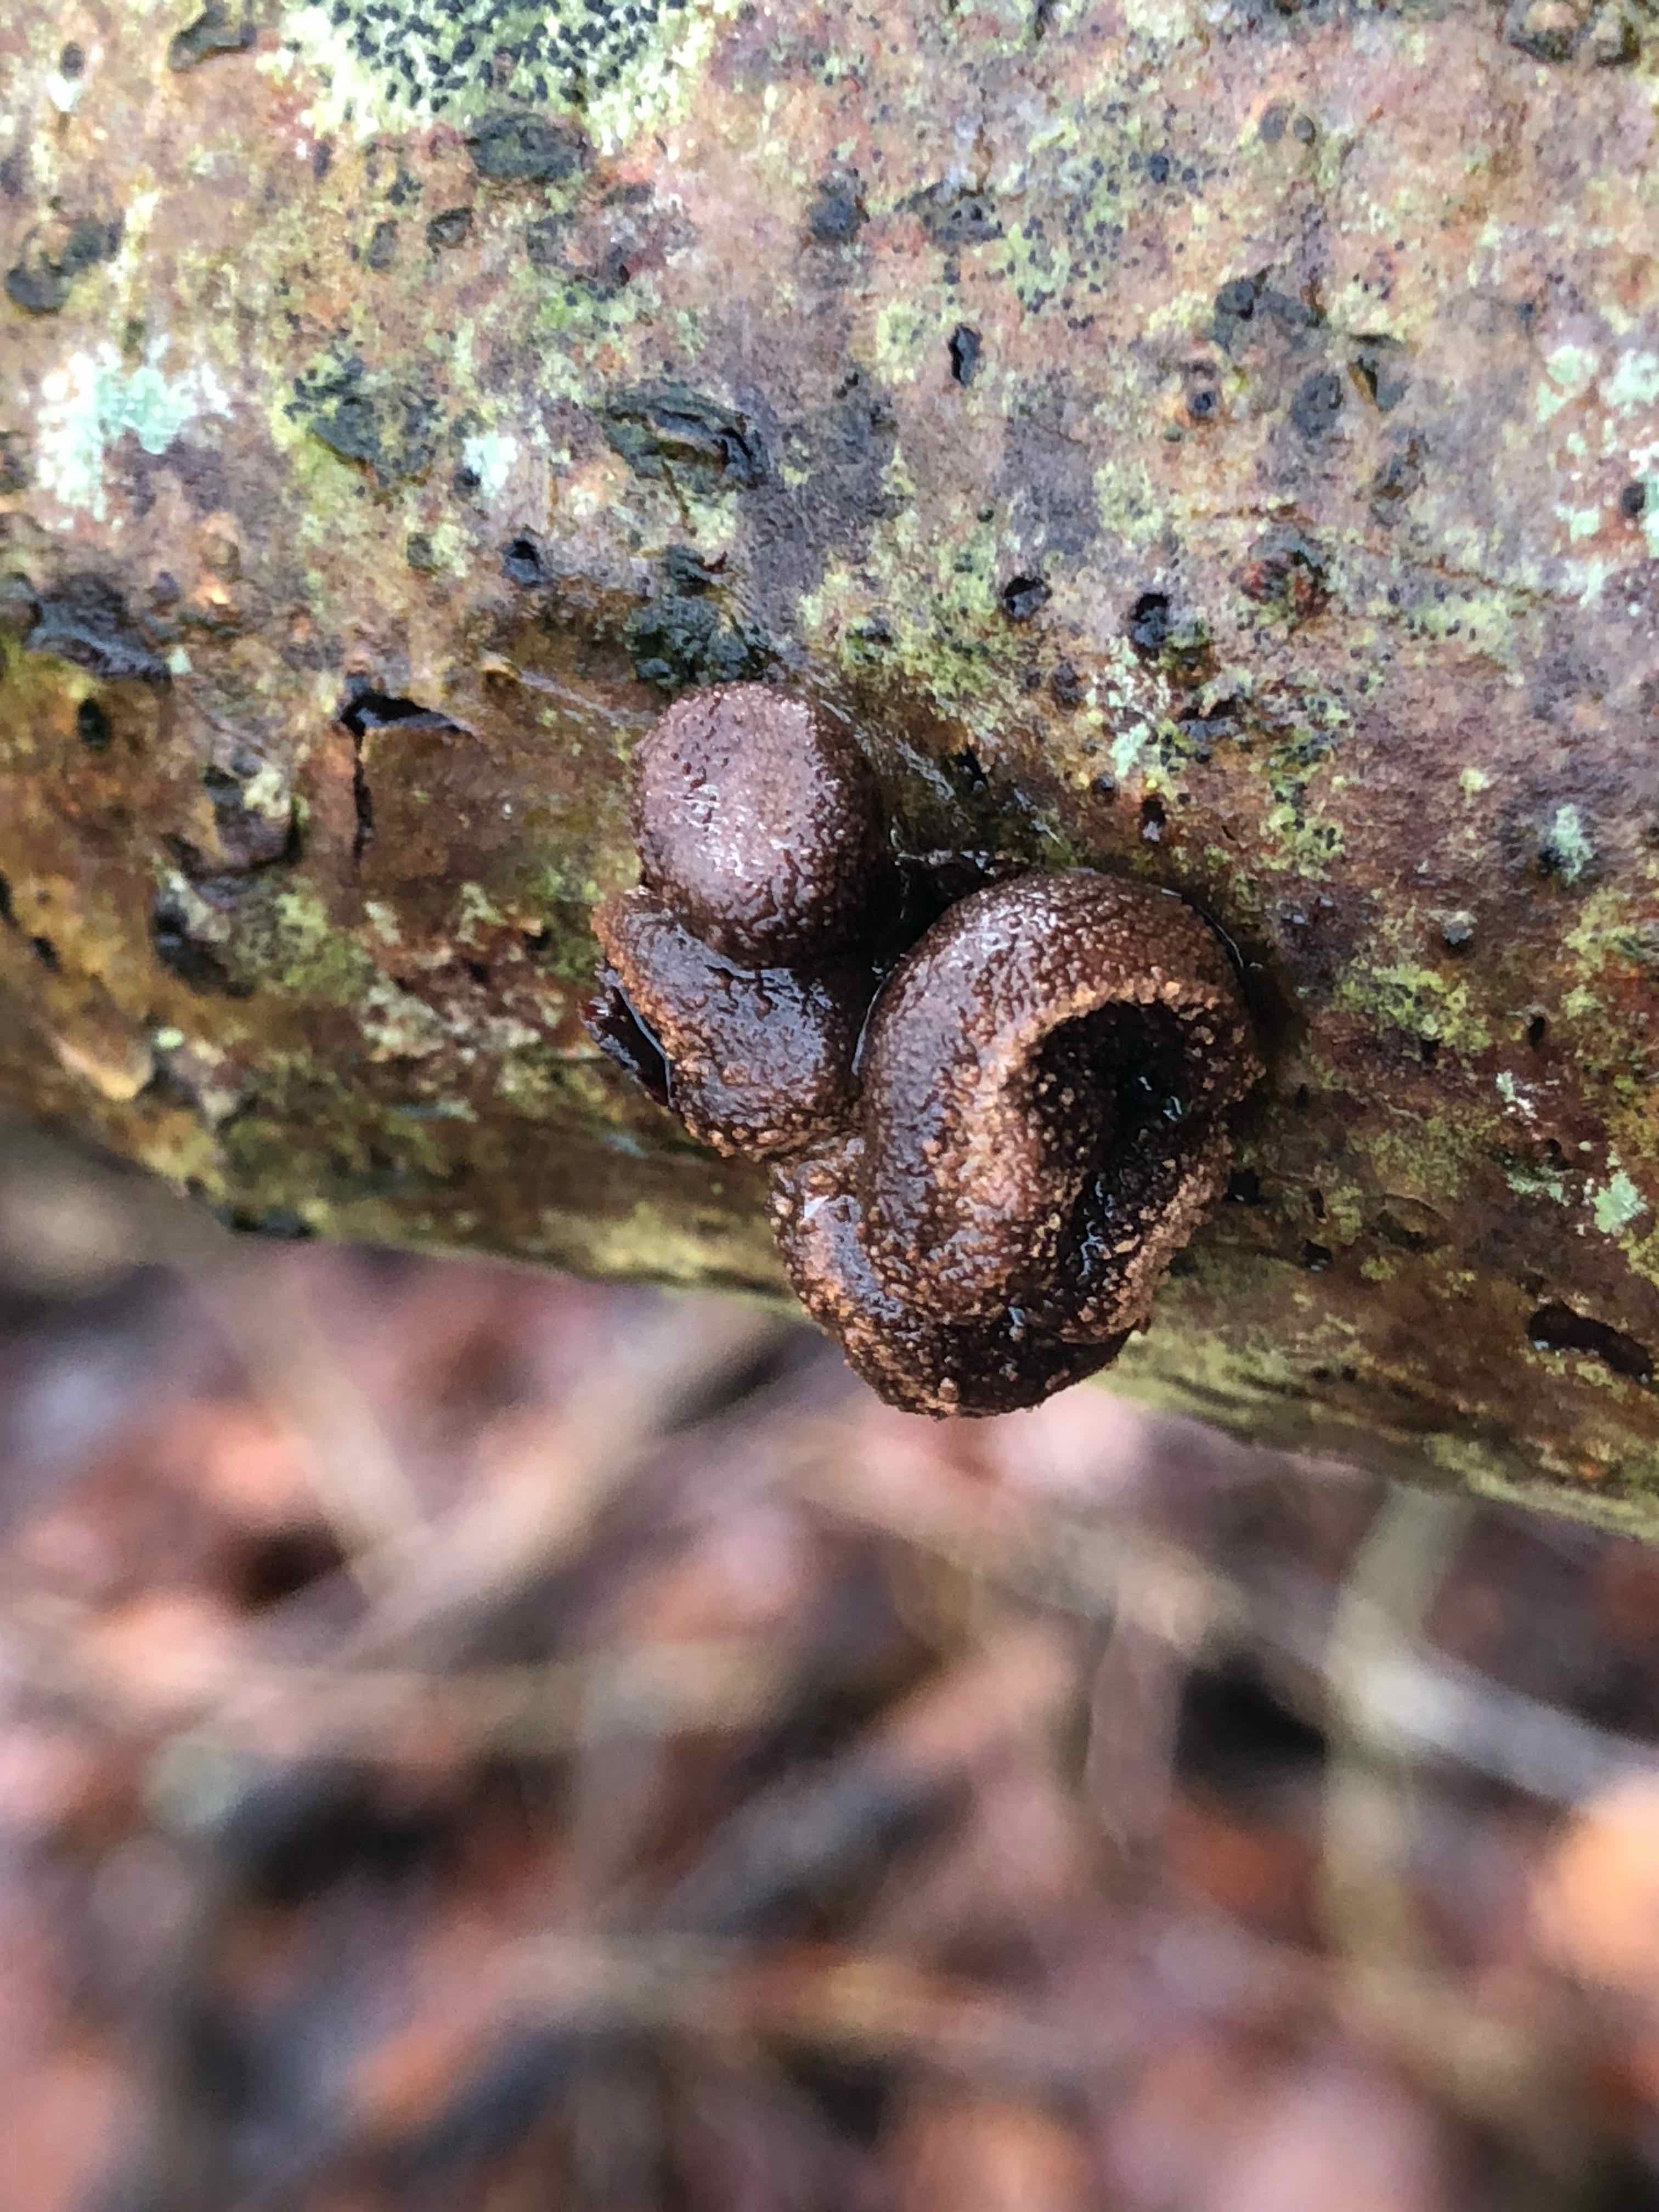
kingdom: Fungi
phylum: Ascomycota
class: Leotiomycetes
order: Helotiales
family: Cenangiaceae
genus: Encoelia
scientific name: Encoelia furfuracea
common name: hassel-læderskive
